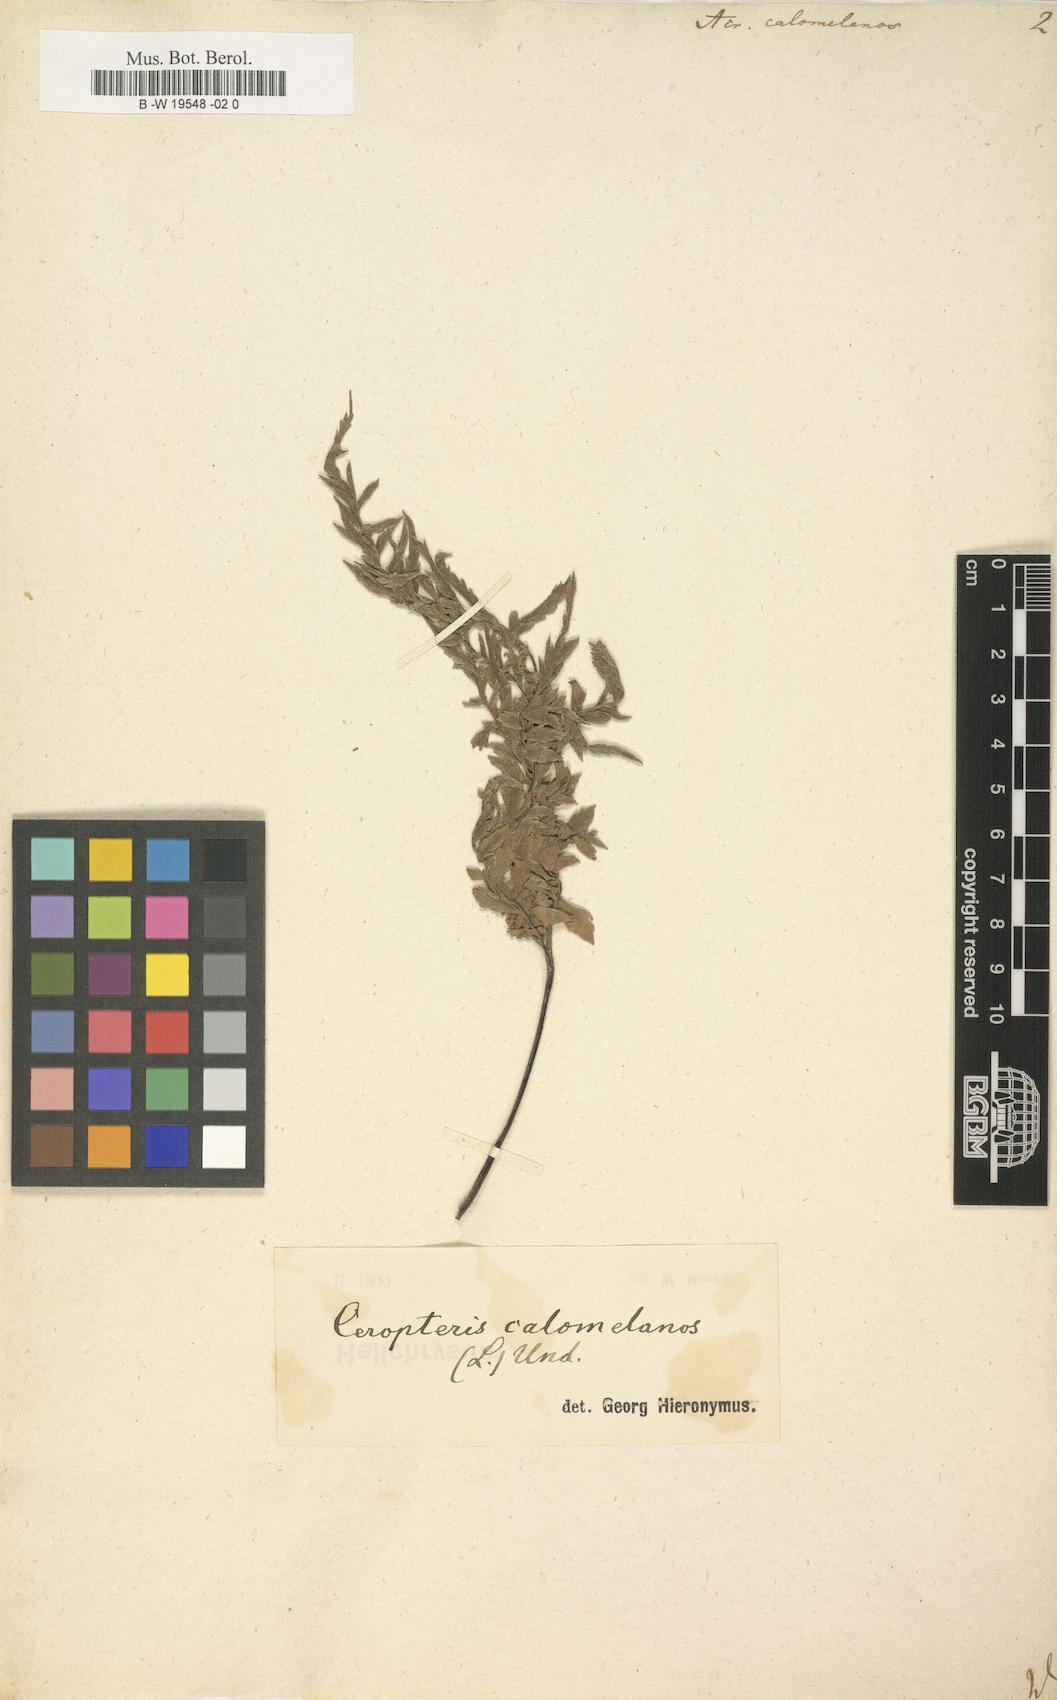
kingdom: Plantae
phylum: Tracheophyta
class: Polypodiopsida
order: Polypodiales
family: Pteridaceae
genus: Pityrogramma
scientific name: Pityrogramma calomelanos
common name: Dixie silverback fern
